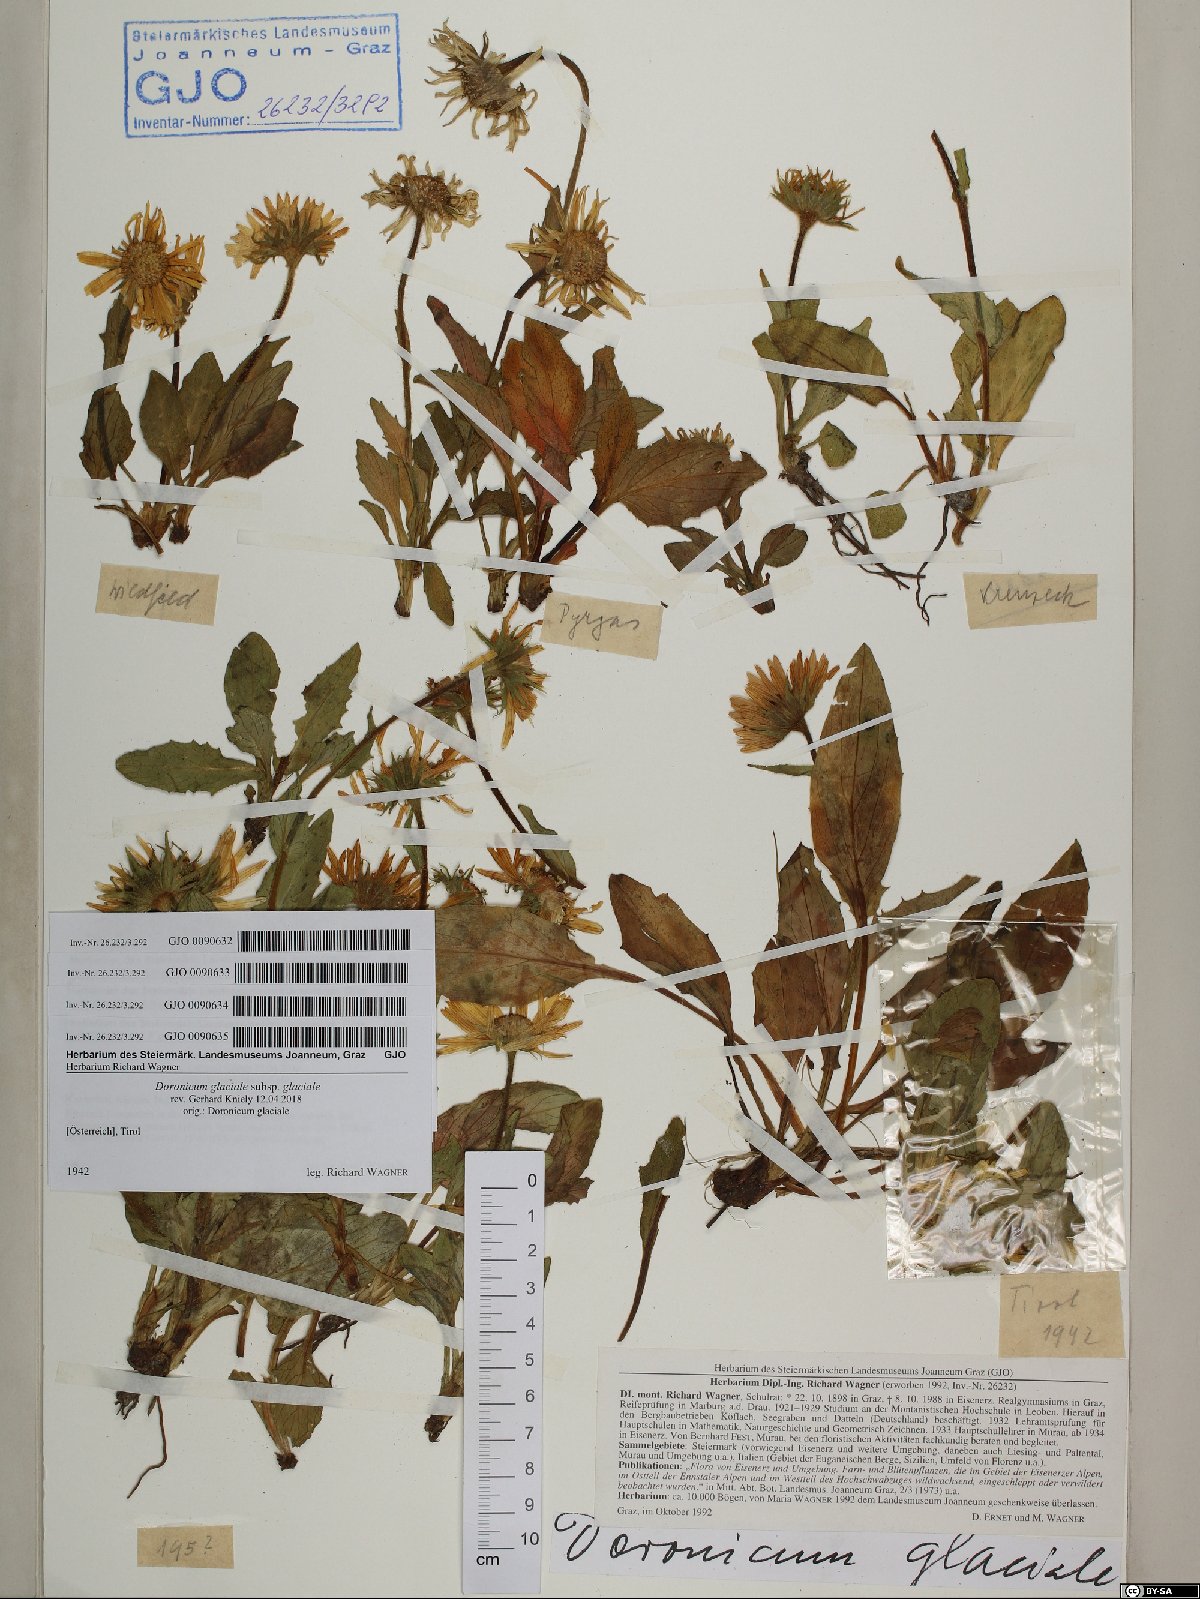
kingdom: Plantae
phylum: Tracheophyta
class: Magnoliopsida
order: Asterales
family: Asteraceae
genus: Doronicum
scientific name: Doronicum glaciale
